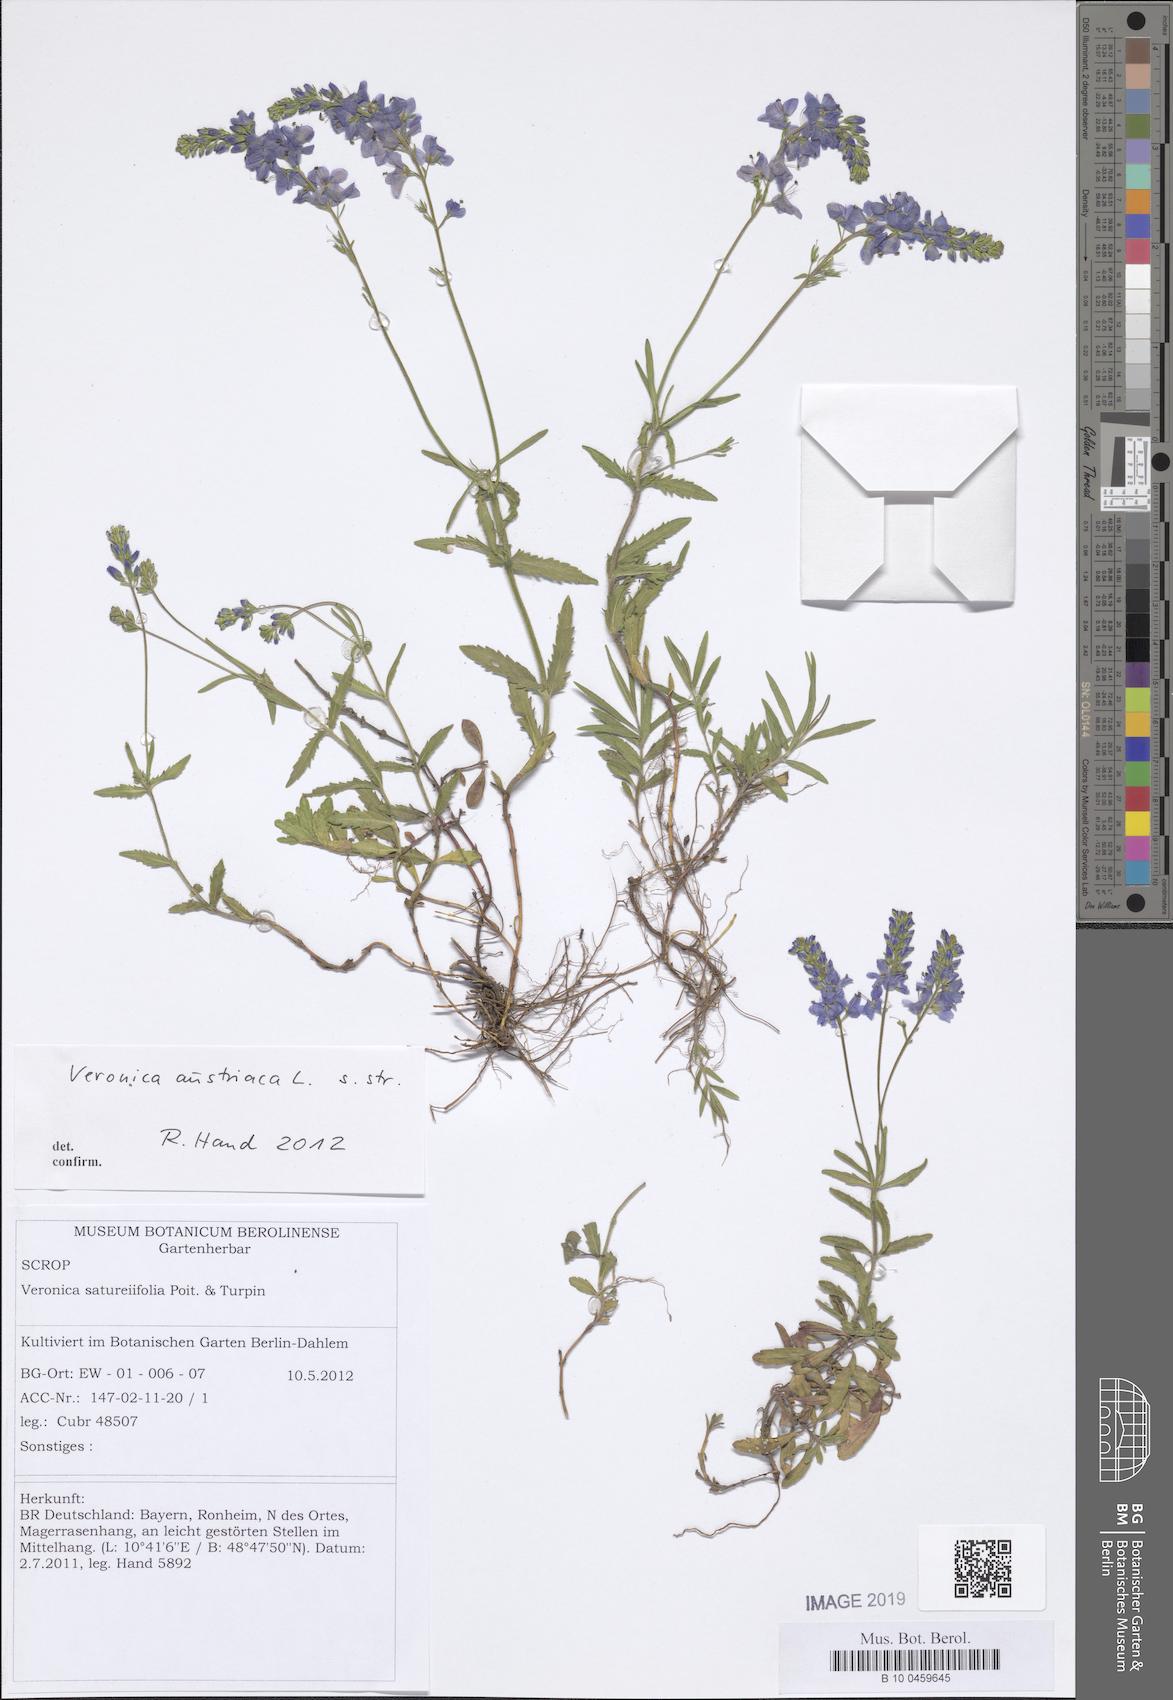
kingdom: Plantae
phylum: Tracheophyta
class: Magnoliopsida
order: Lamiales
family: Plantaginaceae
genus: Veronica
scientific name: Veronica austriaca
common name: Large speedwell
